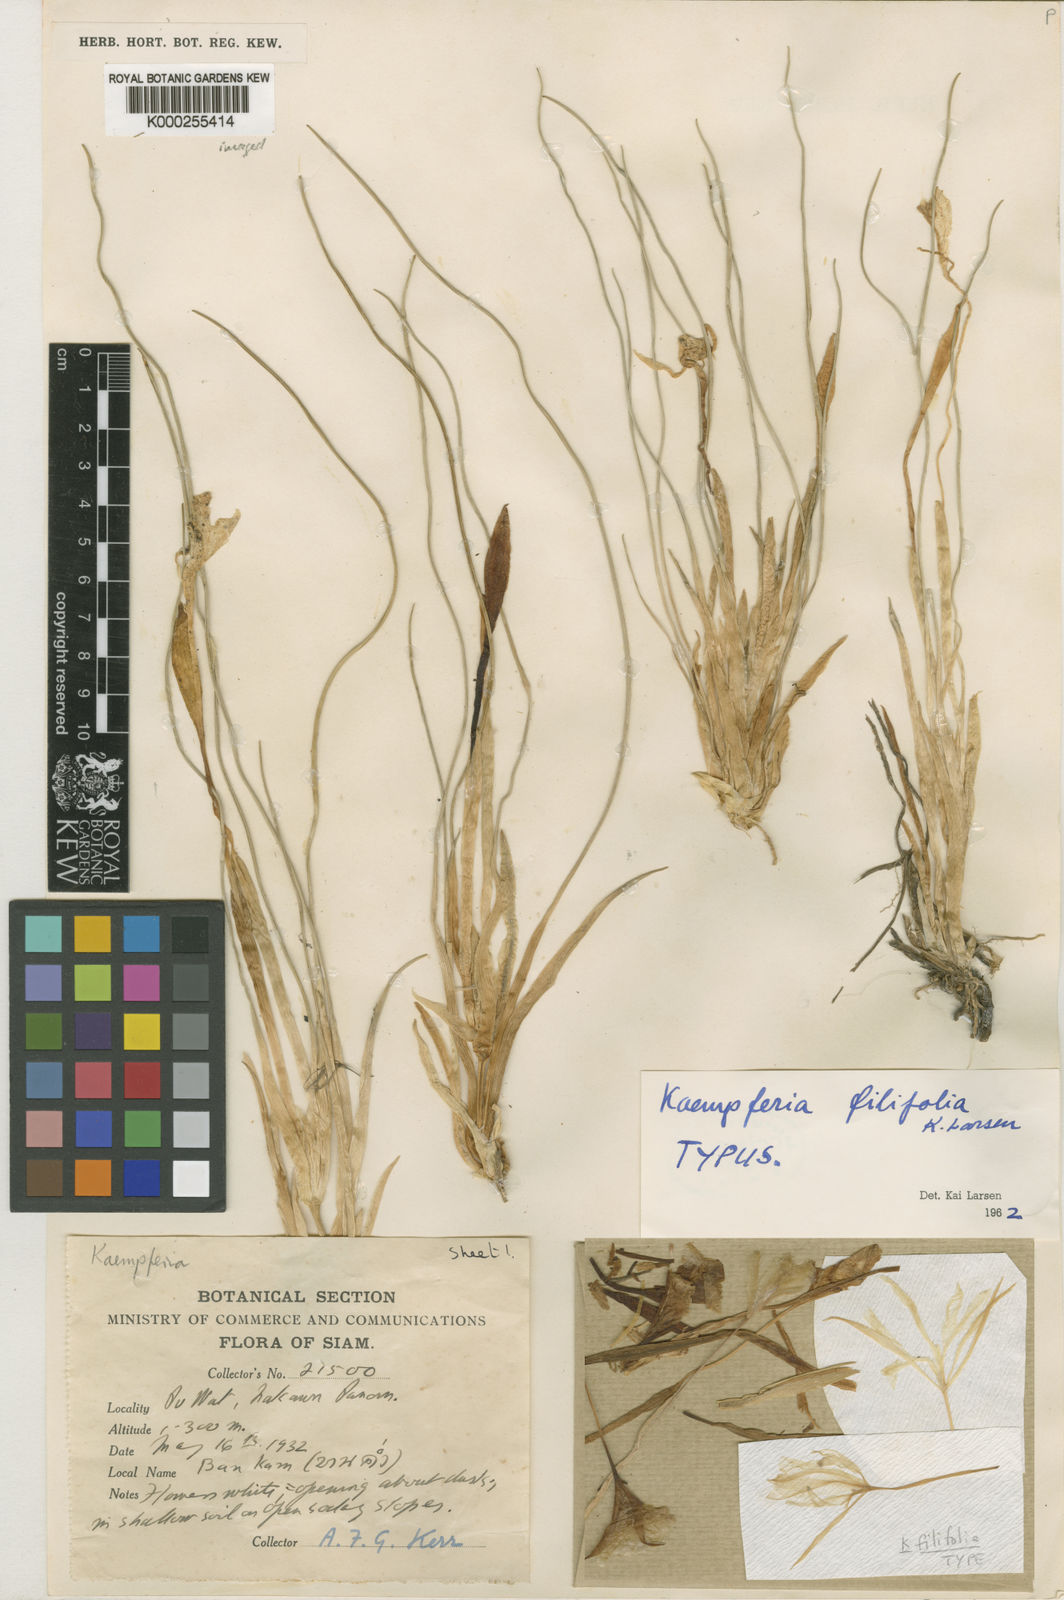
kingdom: Plantae
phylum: Tracheophyta
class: Liliopsida
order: Zingiberales
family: Zingiberaceae
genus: Kaempferia
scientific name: Kaempferia filifolia
